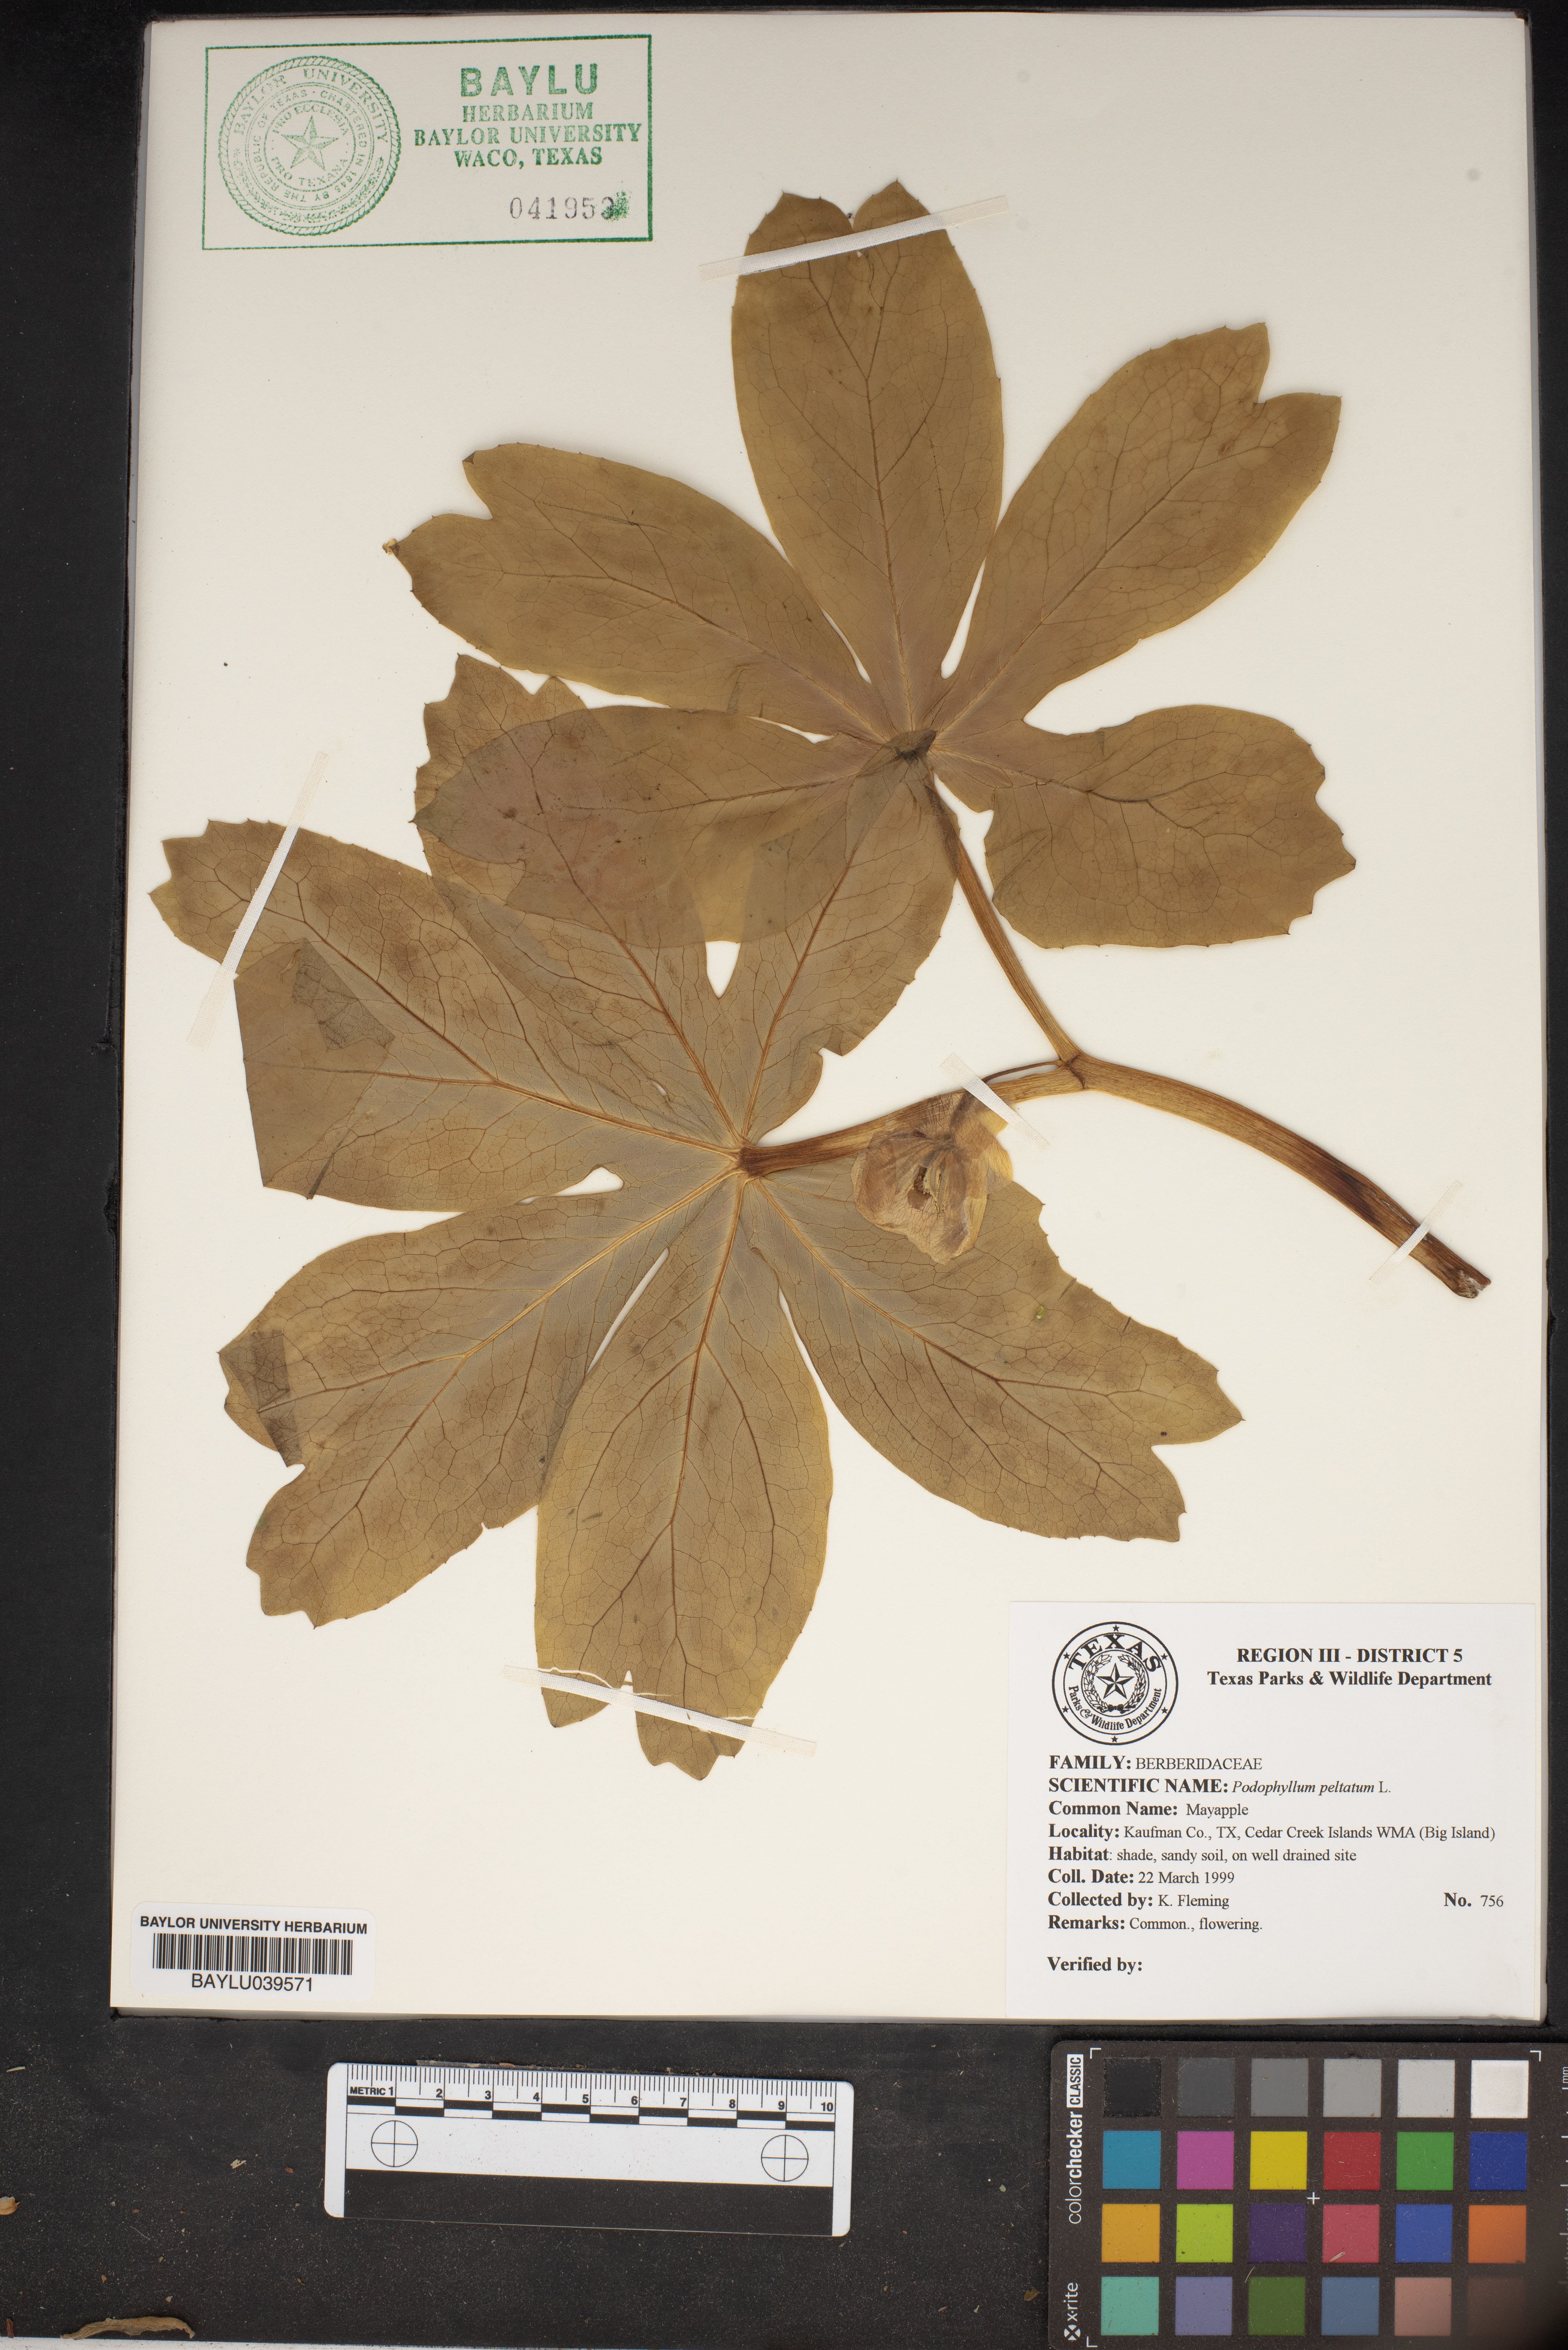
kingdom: Plantae
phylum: Tracheophyta
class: Magnoliopsida
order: Ranunculales
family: Berberidaceae
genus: Podophyllum
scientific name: Podophyllum peltatum
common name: Wild mandrake
